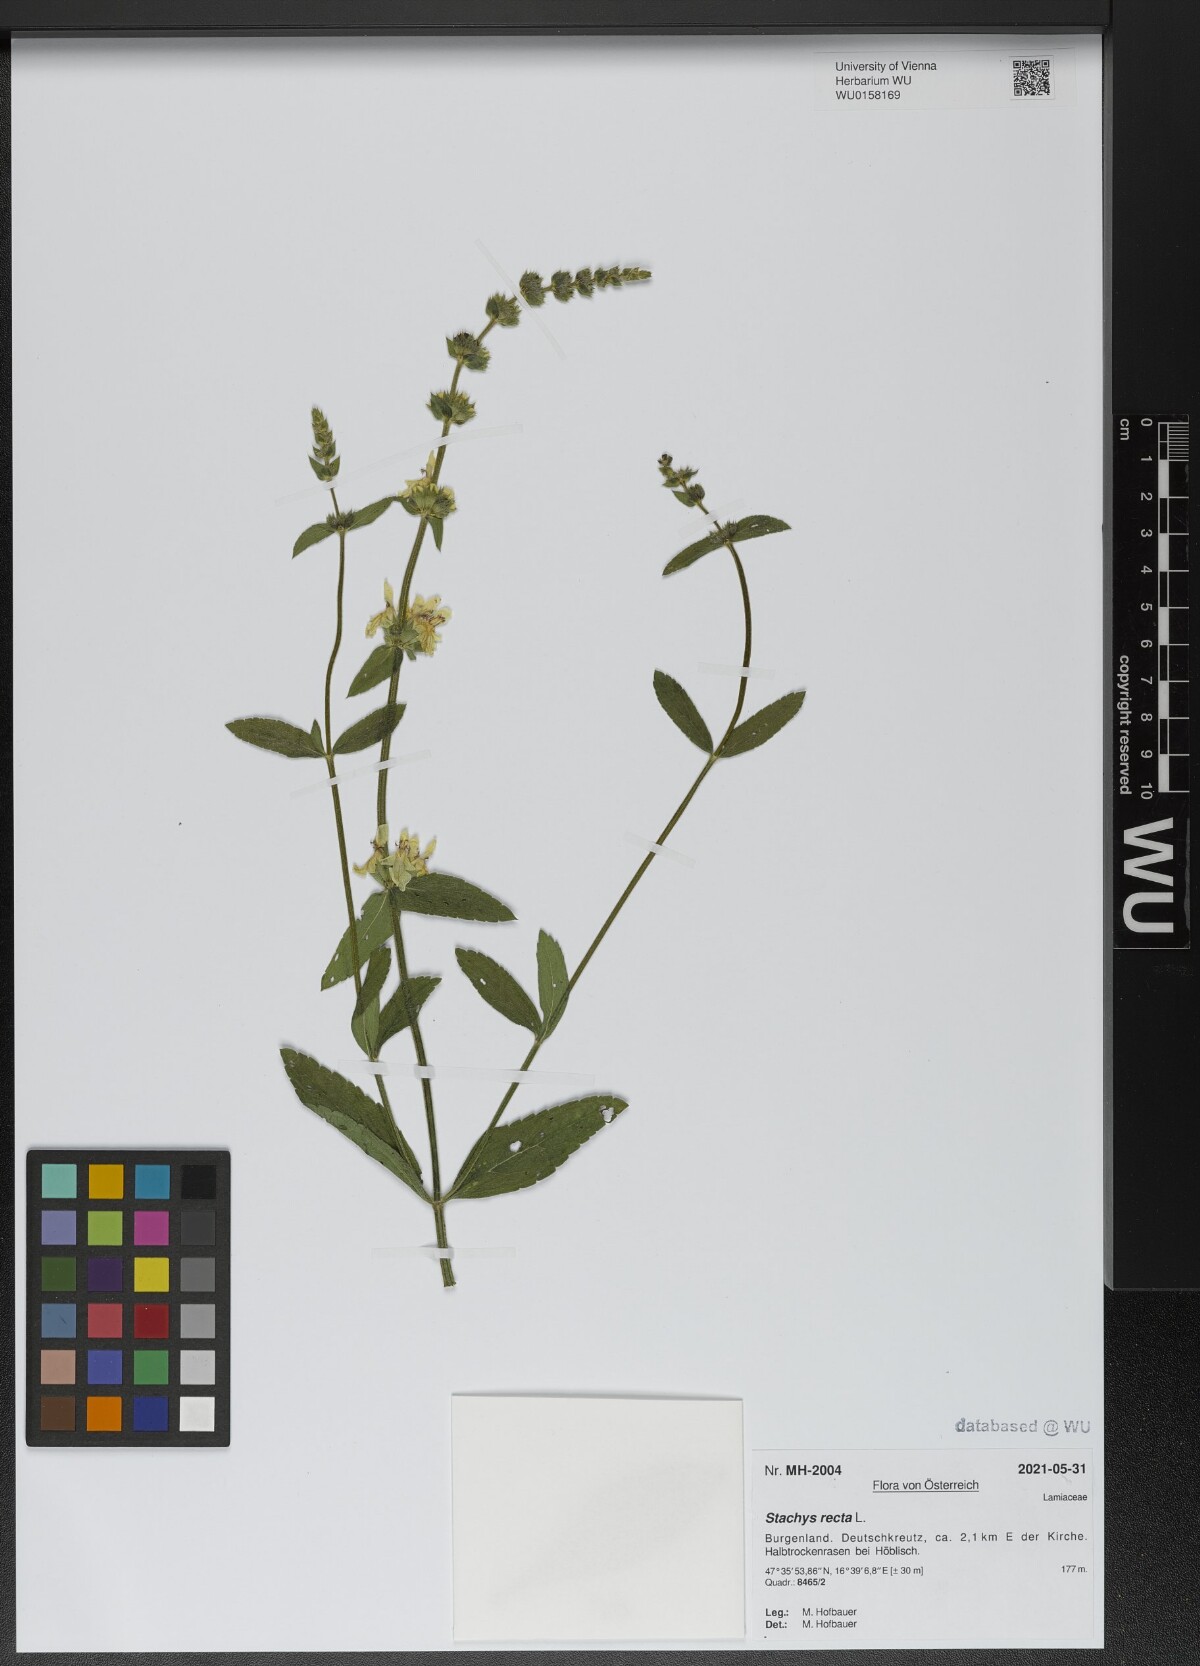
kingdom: Plantae
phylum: Tracheophyta
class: Magnoliopsida
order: Lamiales
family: Lamiaceae
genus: Stachys
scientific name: Stachys recta
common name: Perennial yellow-woundwort
